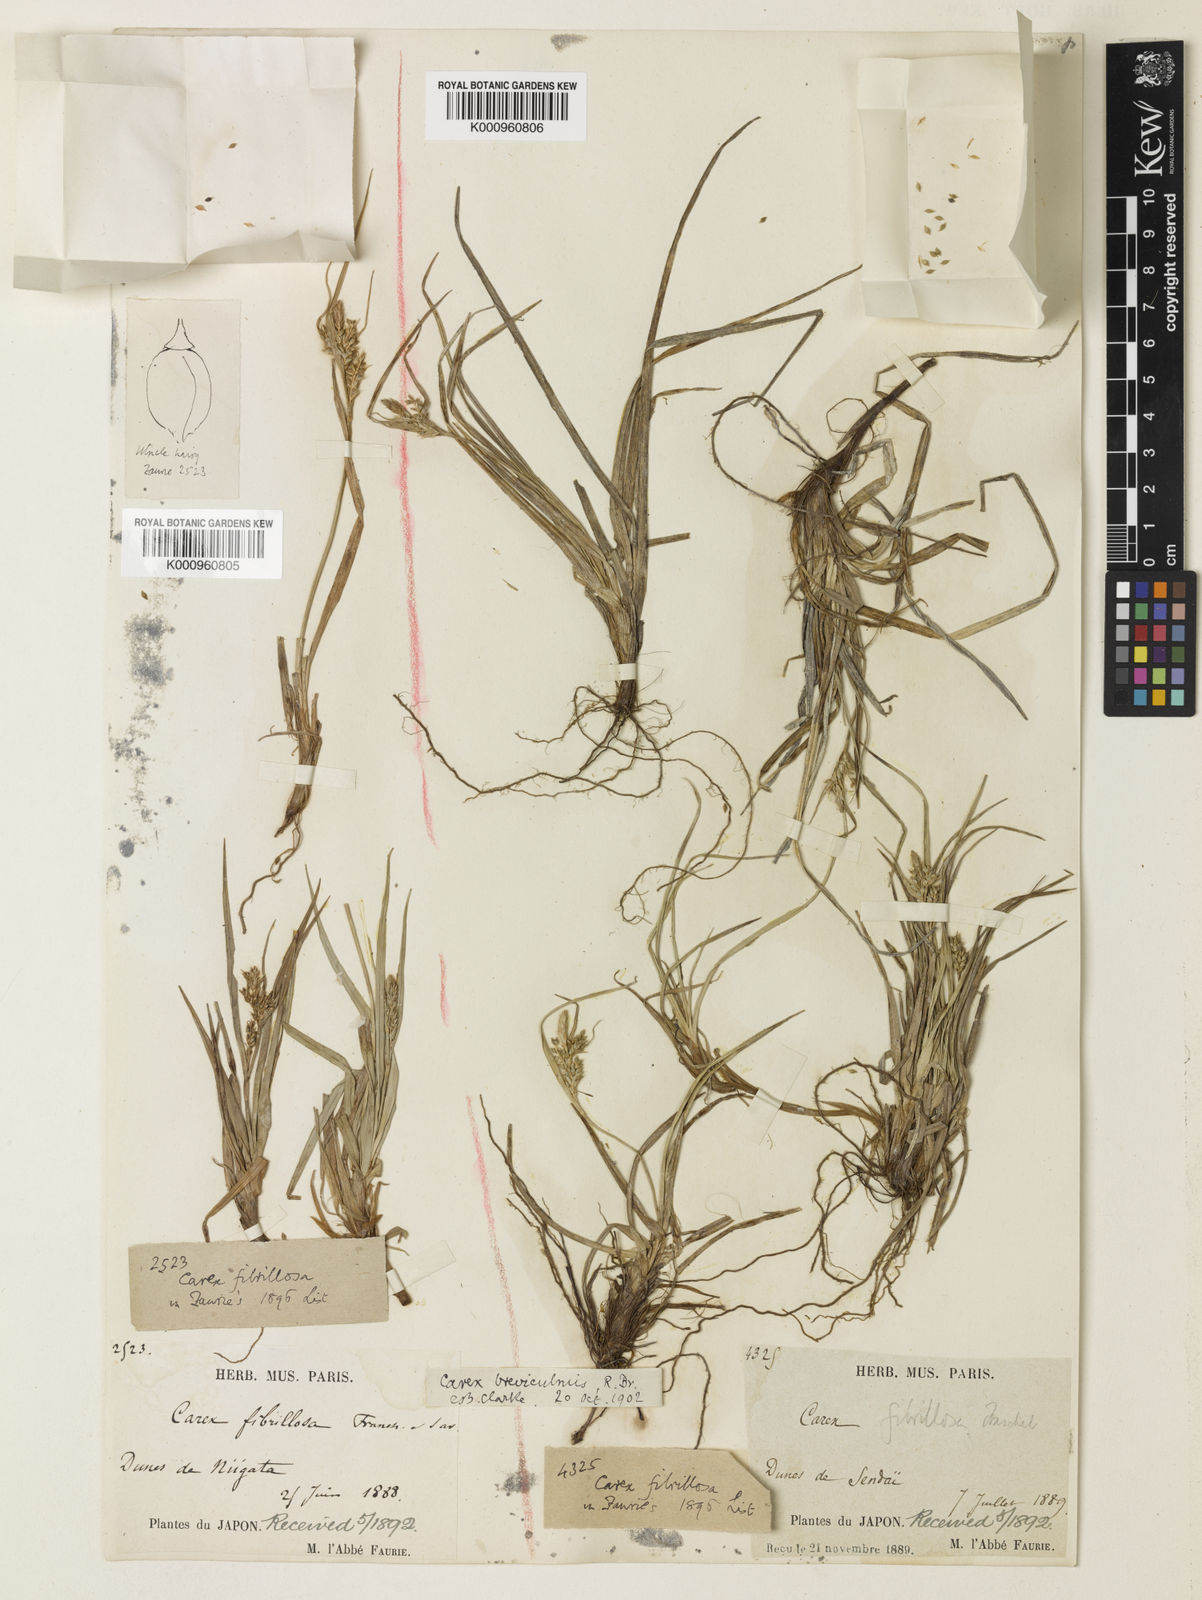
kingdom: Plantae
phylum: Tracheophyta
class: Liliopsida
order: Poales
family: Cyperaceae
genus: Carex
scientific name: Carex breviculmis
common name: Asian shortstem sedge
